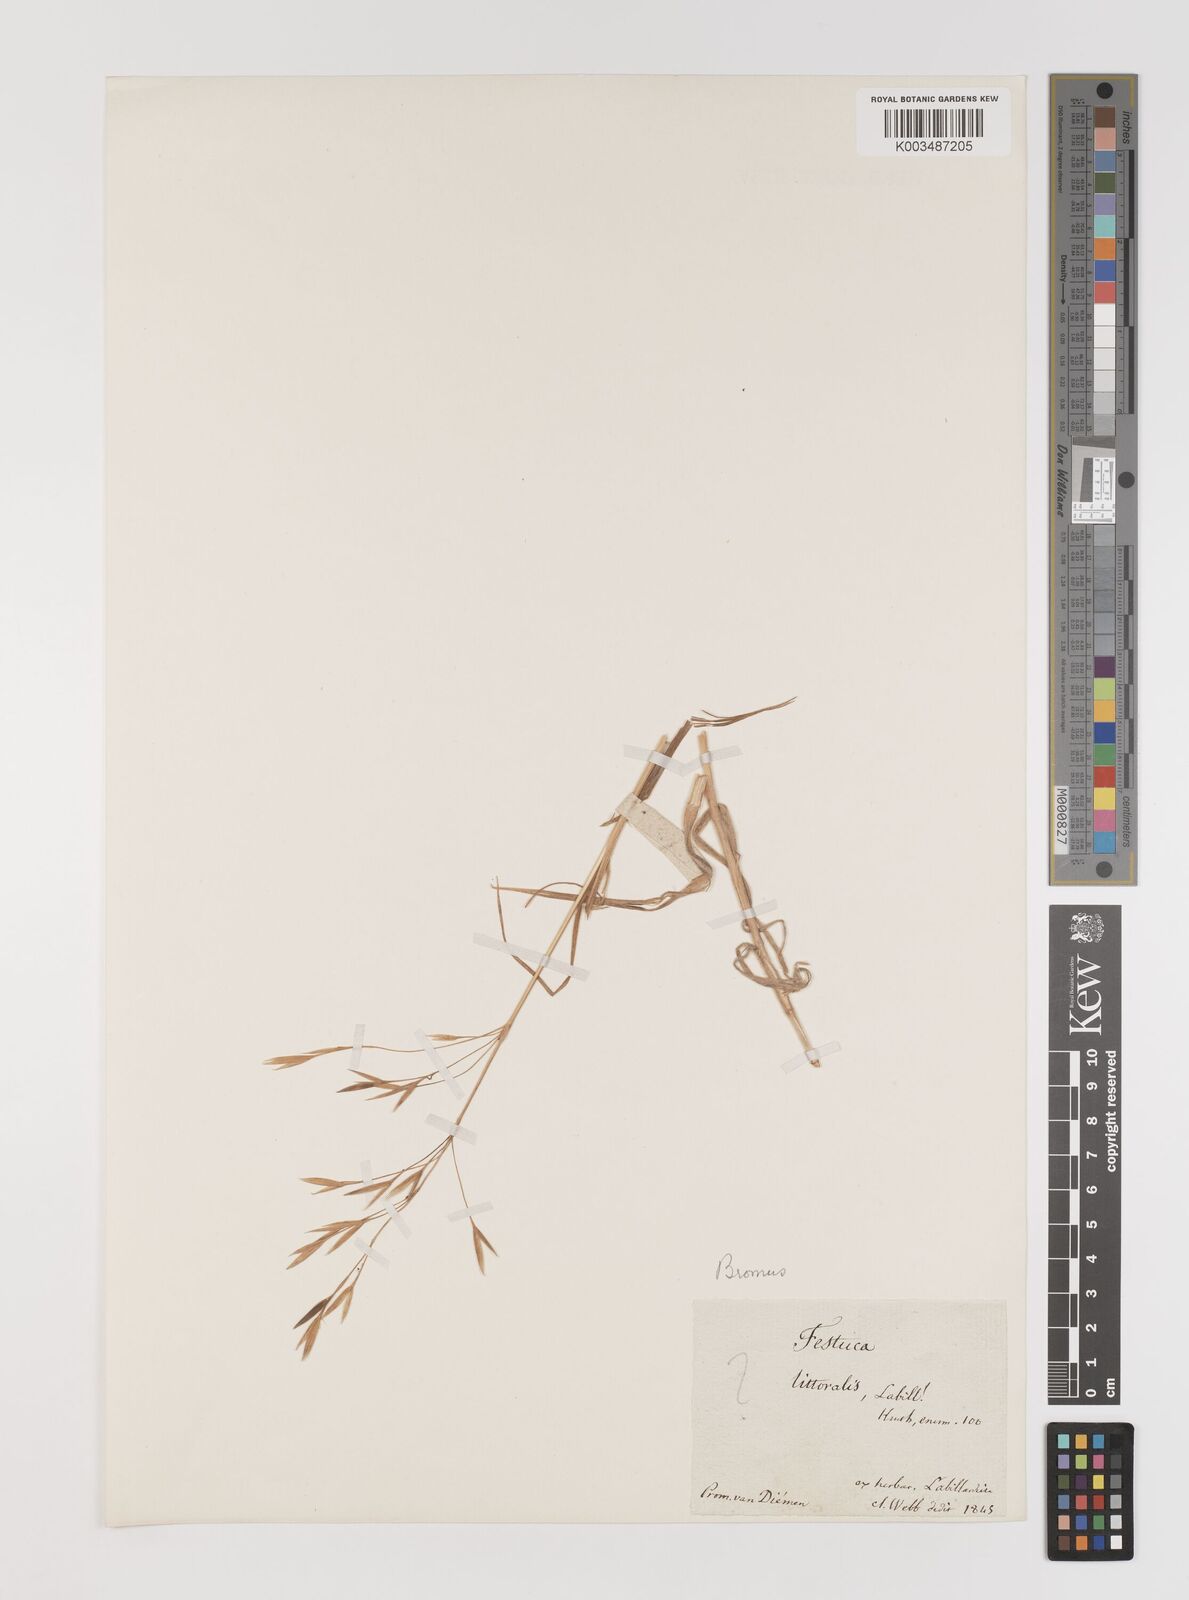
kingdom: Plantae
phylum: Tracheophyta
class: Liliopsida
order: Poales
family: Poaceae
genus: Bromus
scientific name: Bromus
